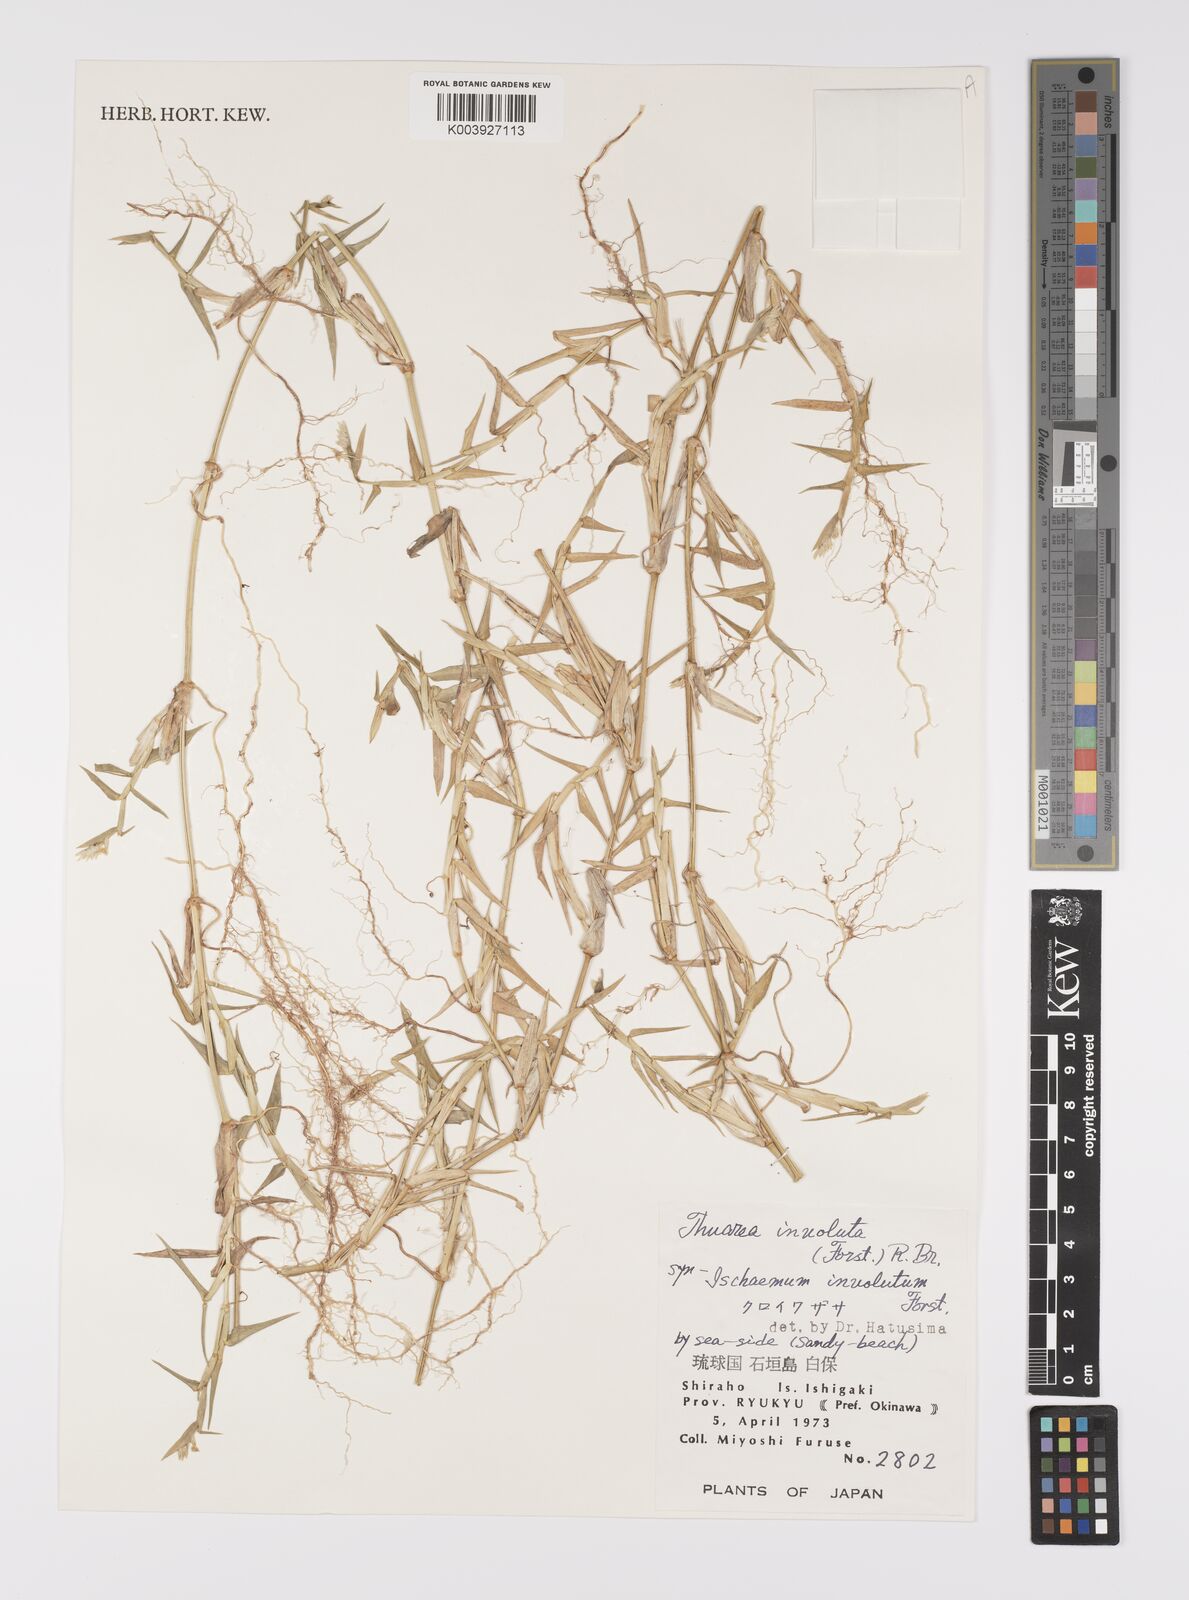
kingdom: Plantae
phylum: Tracheophyta
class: Liliopsida
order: Poales
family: Poaceae
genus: Thuarea
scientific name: Thuarea involuta
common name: Tropical beach grass
